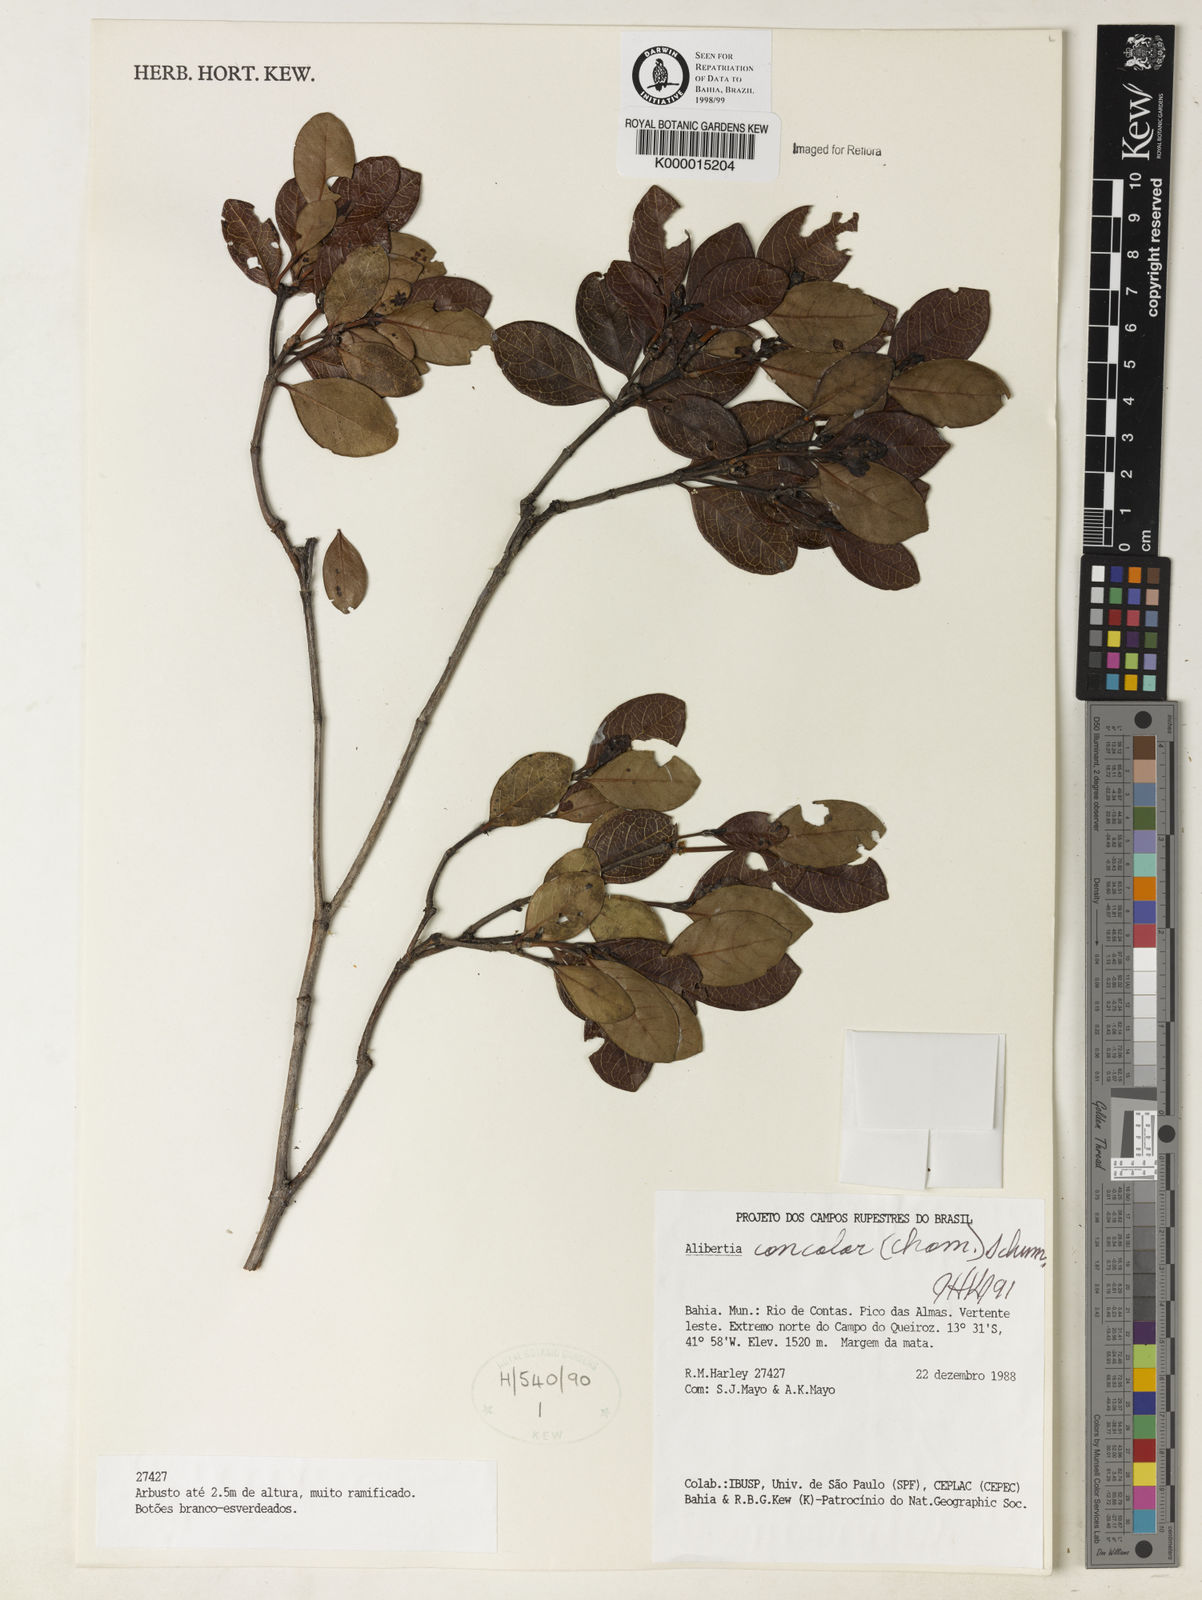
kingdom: Plantae
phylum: Tracheophyta
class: Magnoliopsida
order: Gentianales
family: Rubiaceae
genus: Cordiera
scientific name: Cordiera concolor
